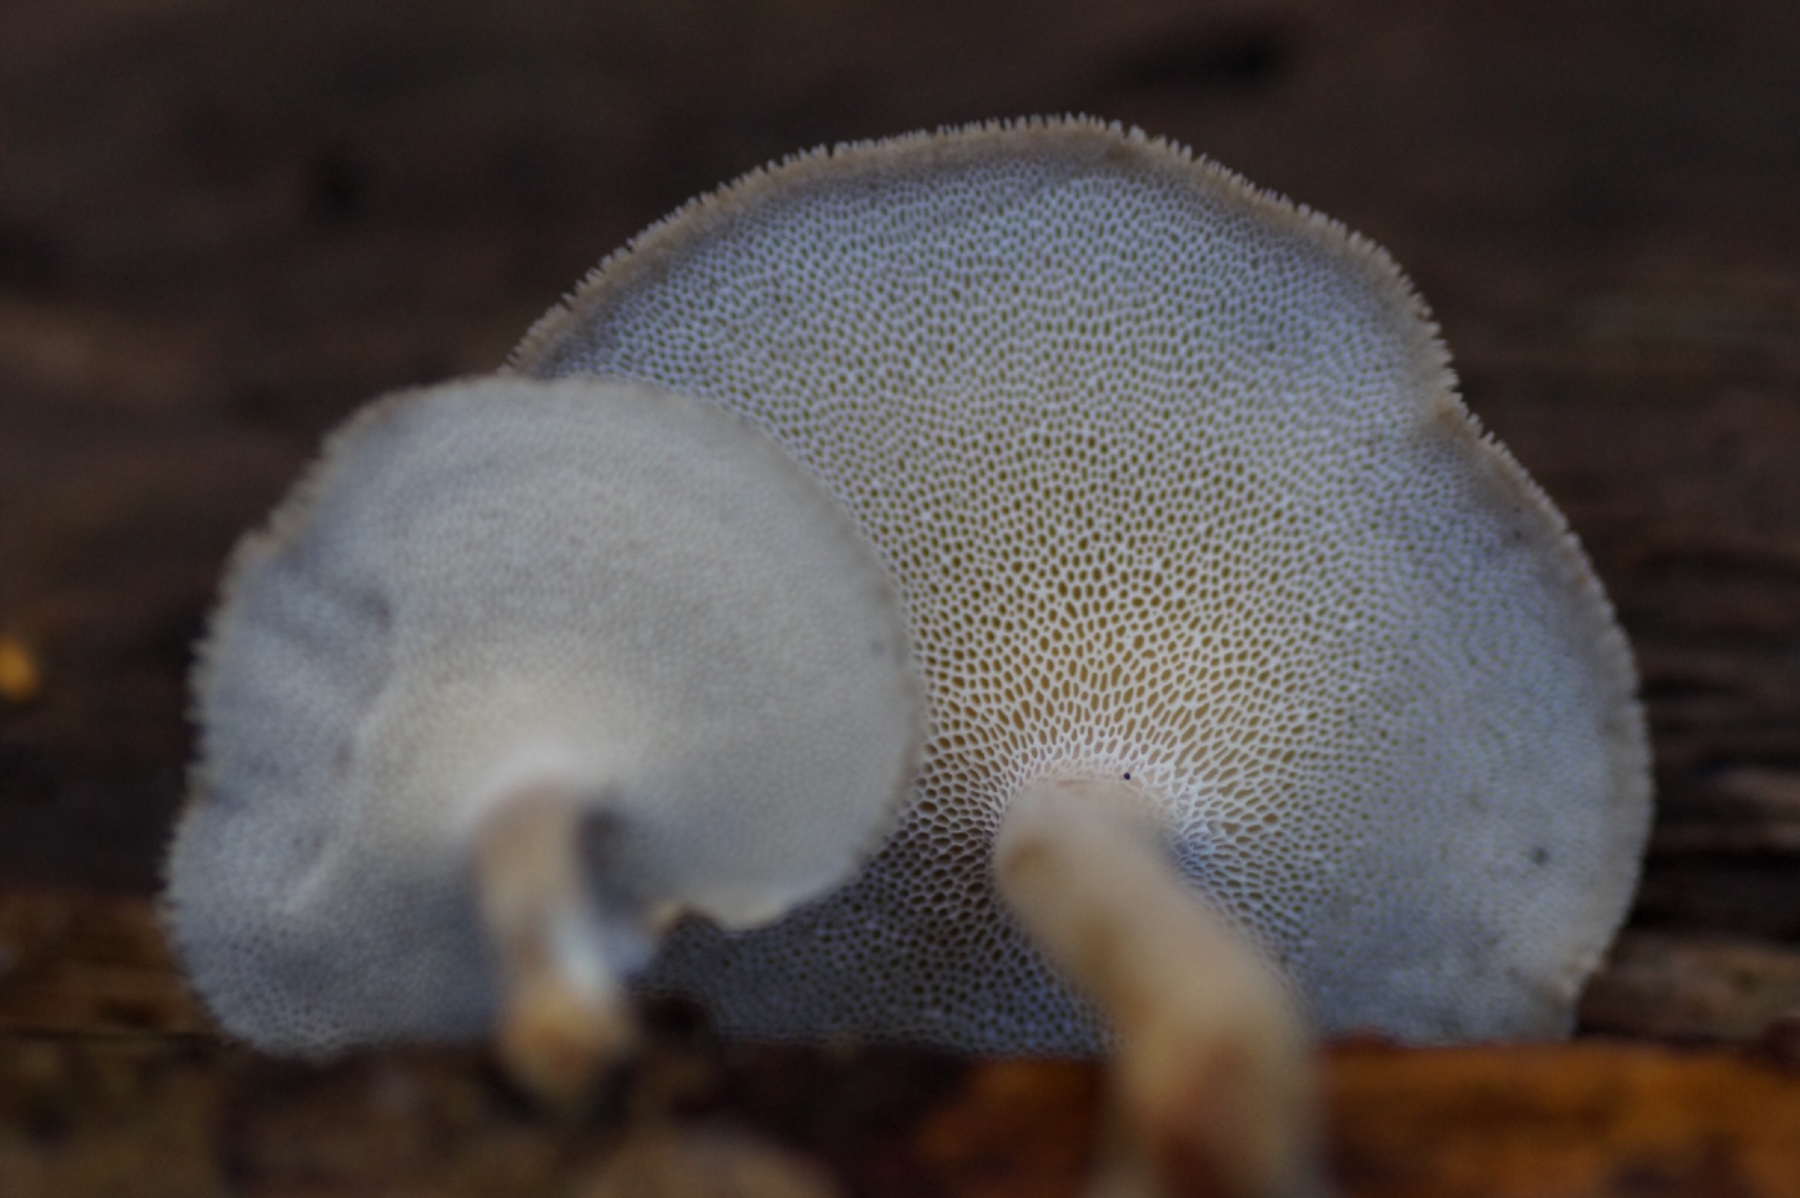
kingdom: Fungi
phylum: Basidiomycota
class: Agaricomycetes
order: Polyporales
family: Polyporaceae
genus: Lentinus
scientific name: Lentinus brumalis
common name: vinter-stilkporesvamp
